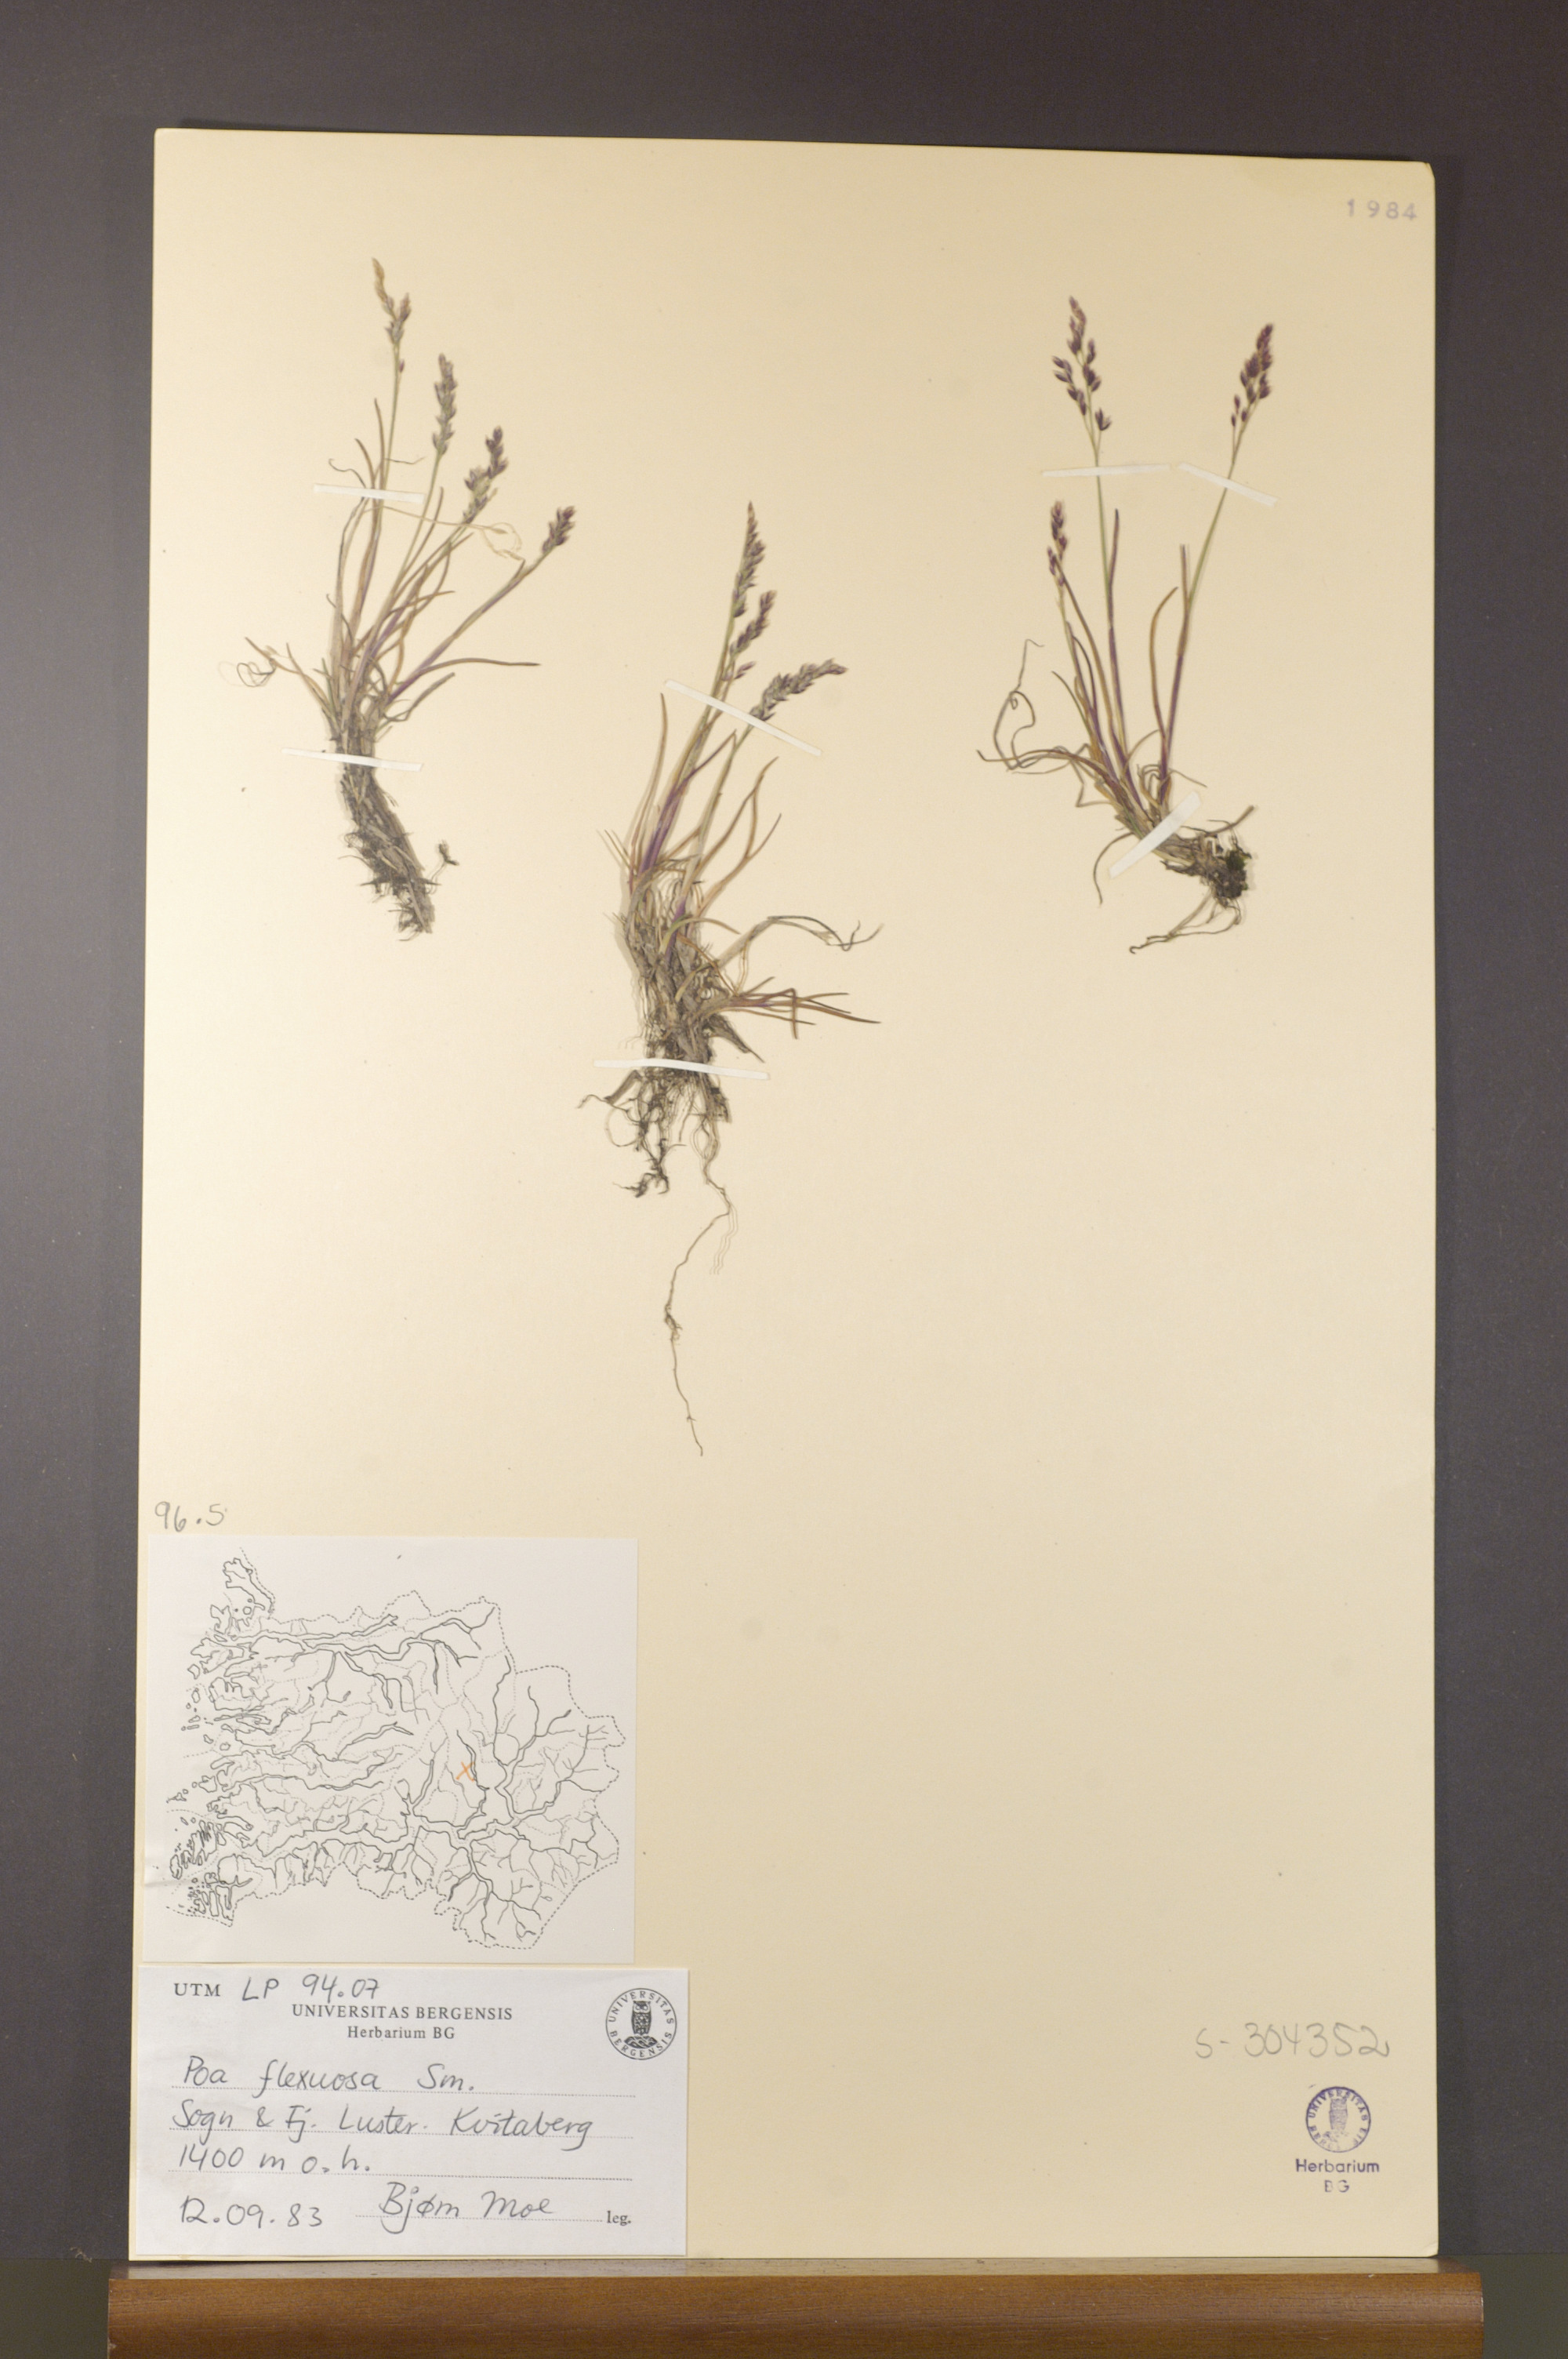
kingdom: Plantae
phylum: Tracheophyta
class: Liliopsida
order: Poales
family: Poaceae
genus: Poa
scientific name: Poa flexuosa
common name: Wavy meadow-grass
